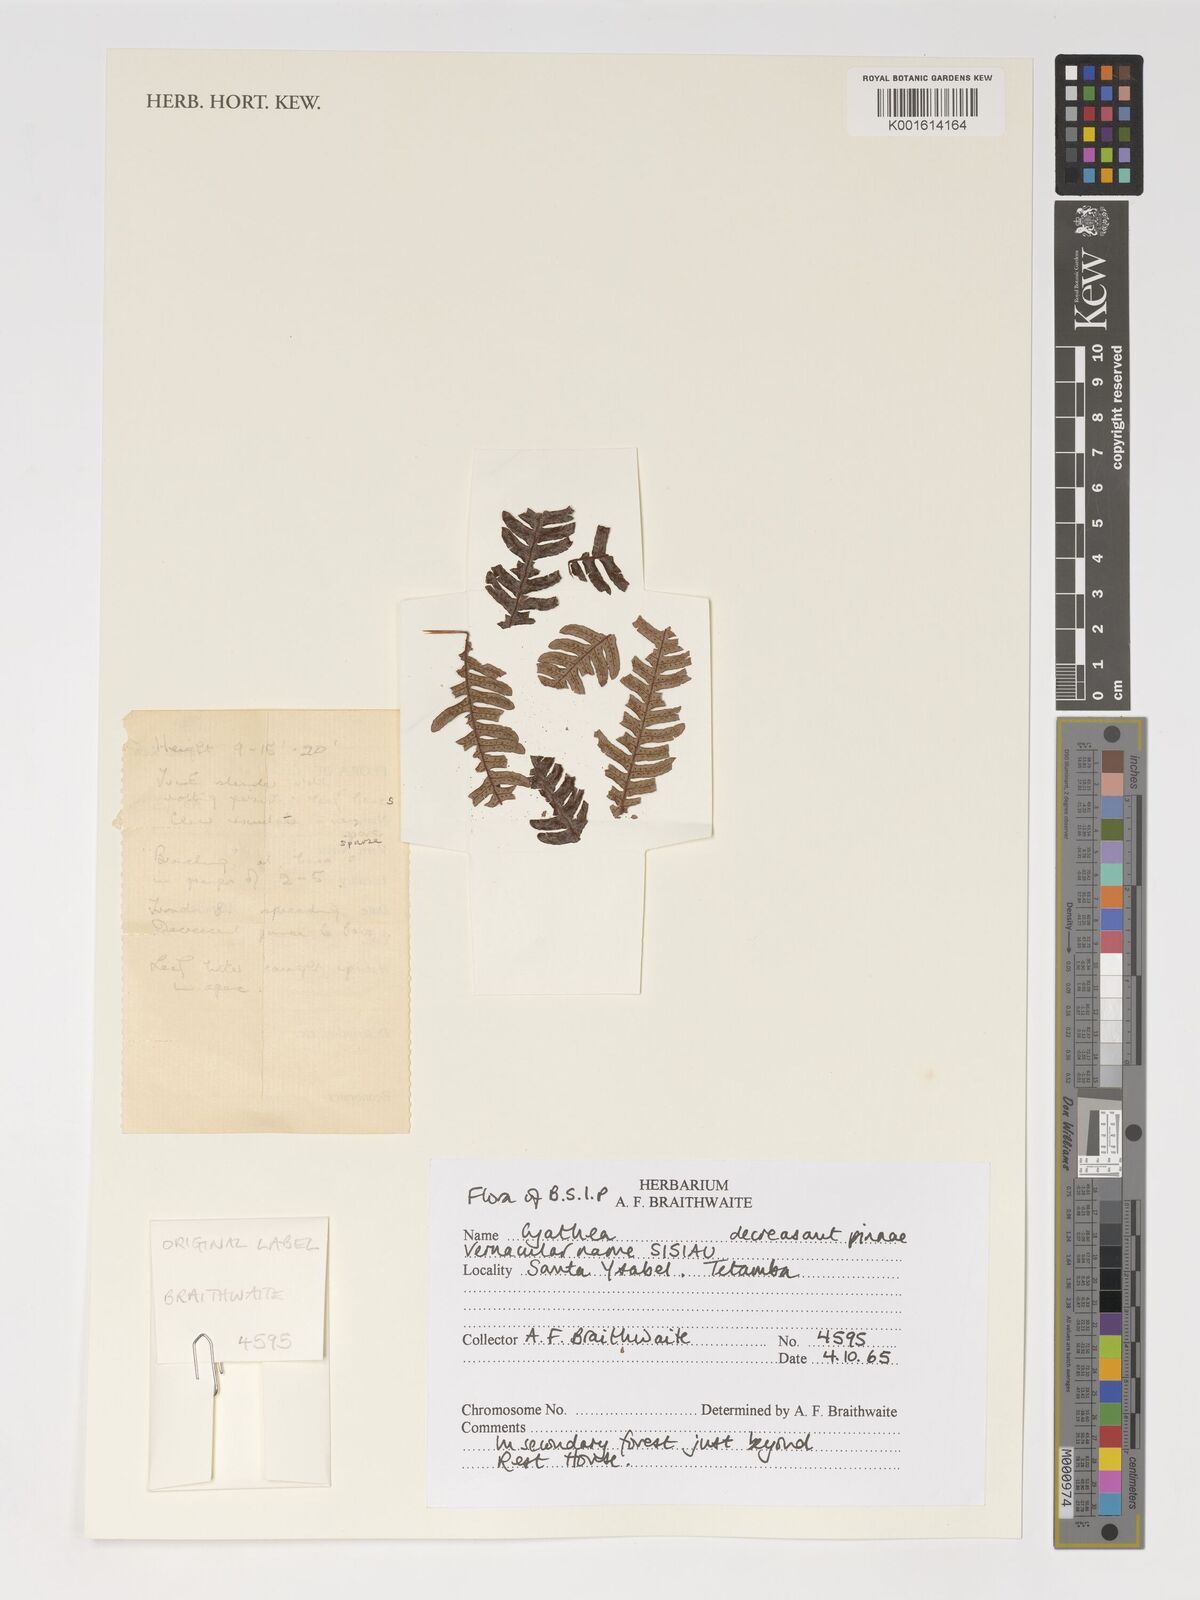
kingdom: Plantae
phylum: Tracheophyta
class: Polypodiopsida
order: Cyatheales
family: Cyatheaceae
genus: Cyathea
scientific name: Cyathea
